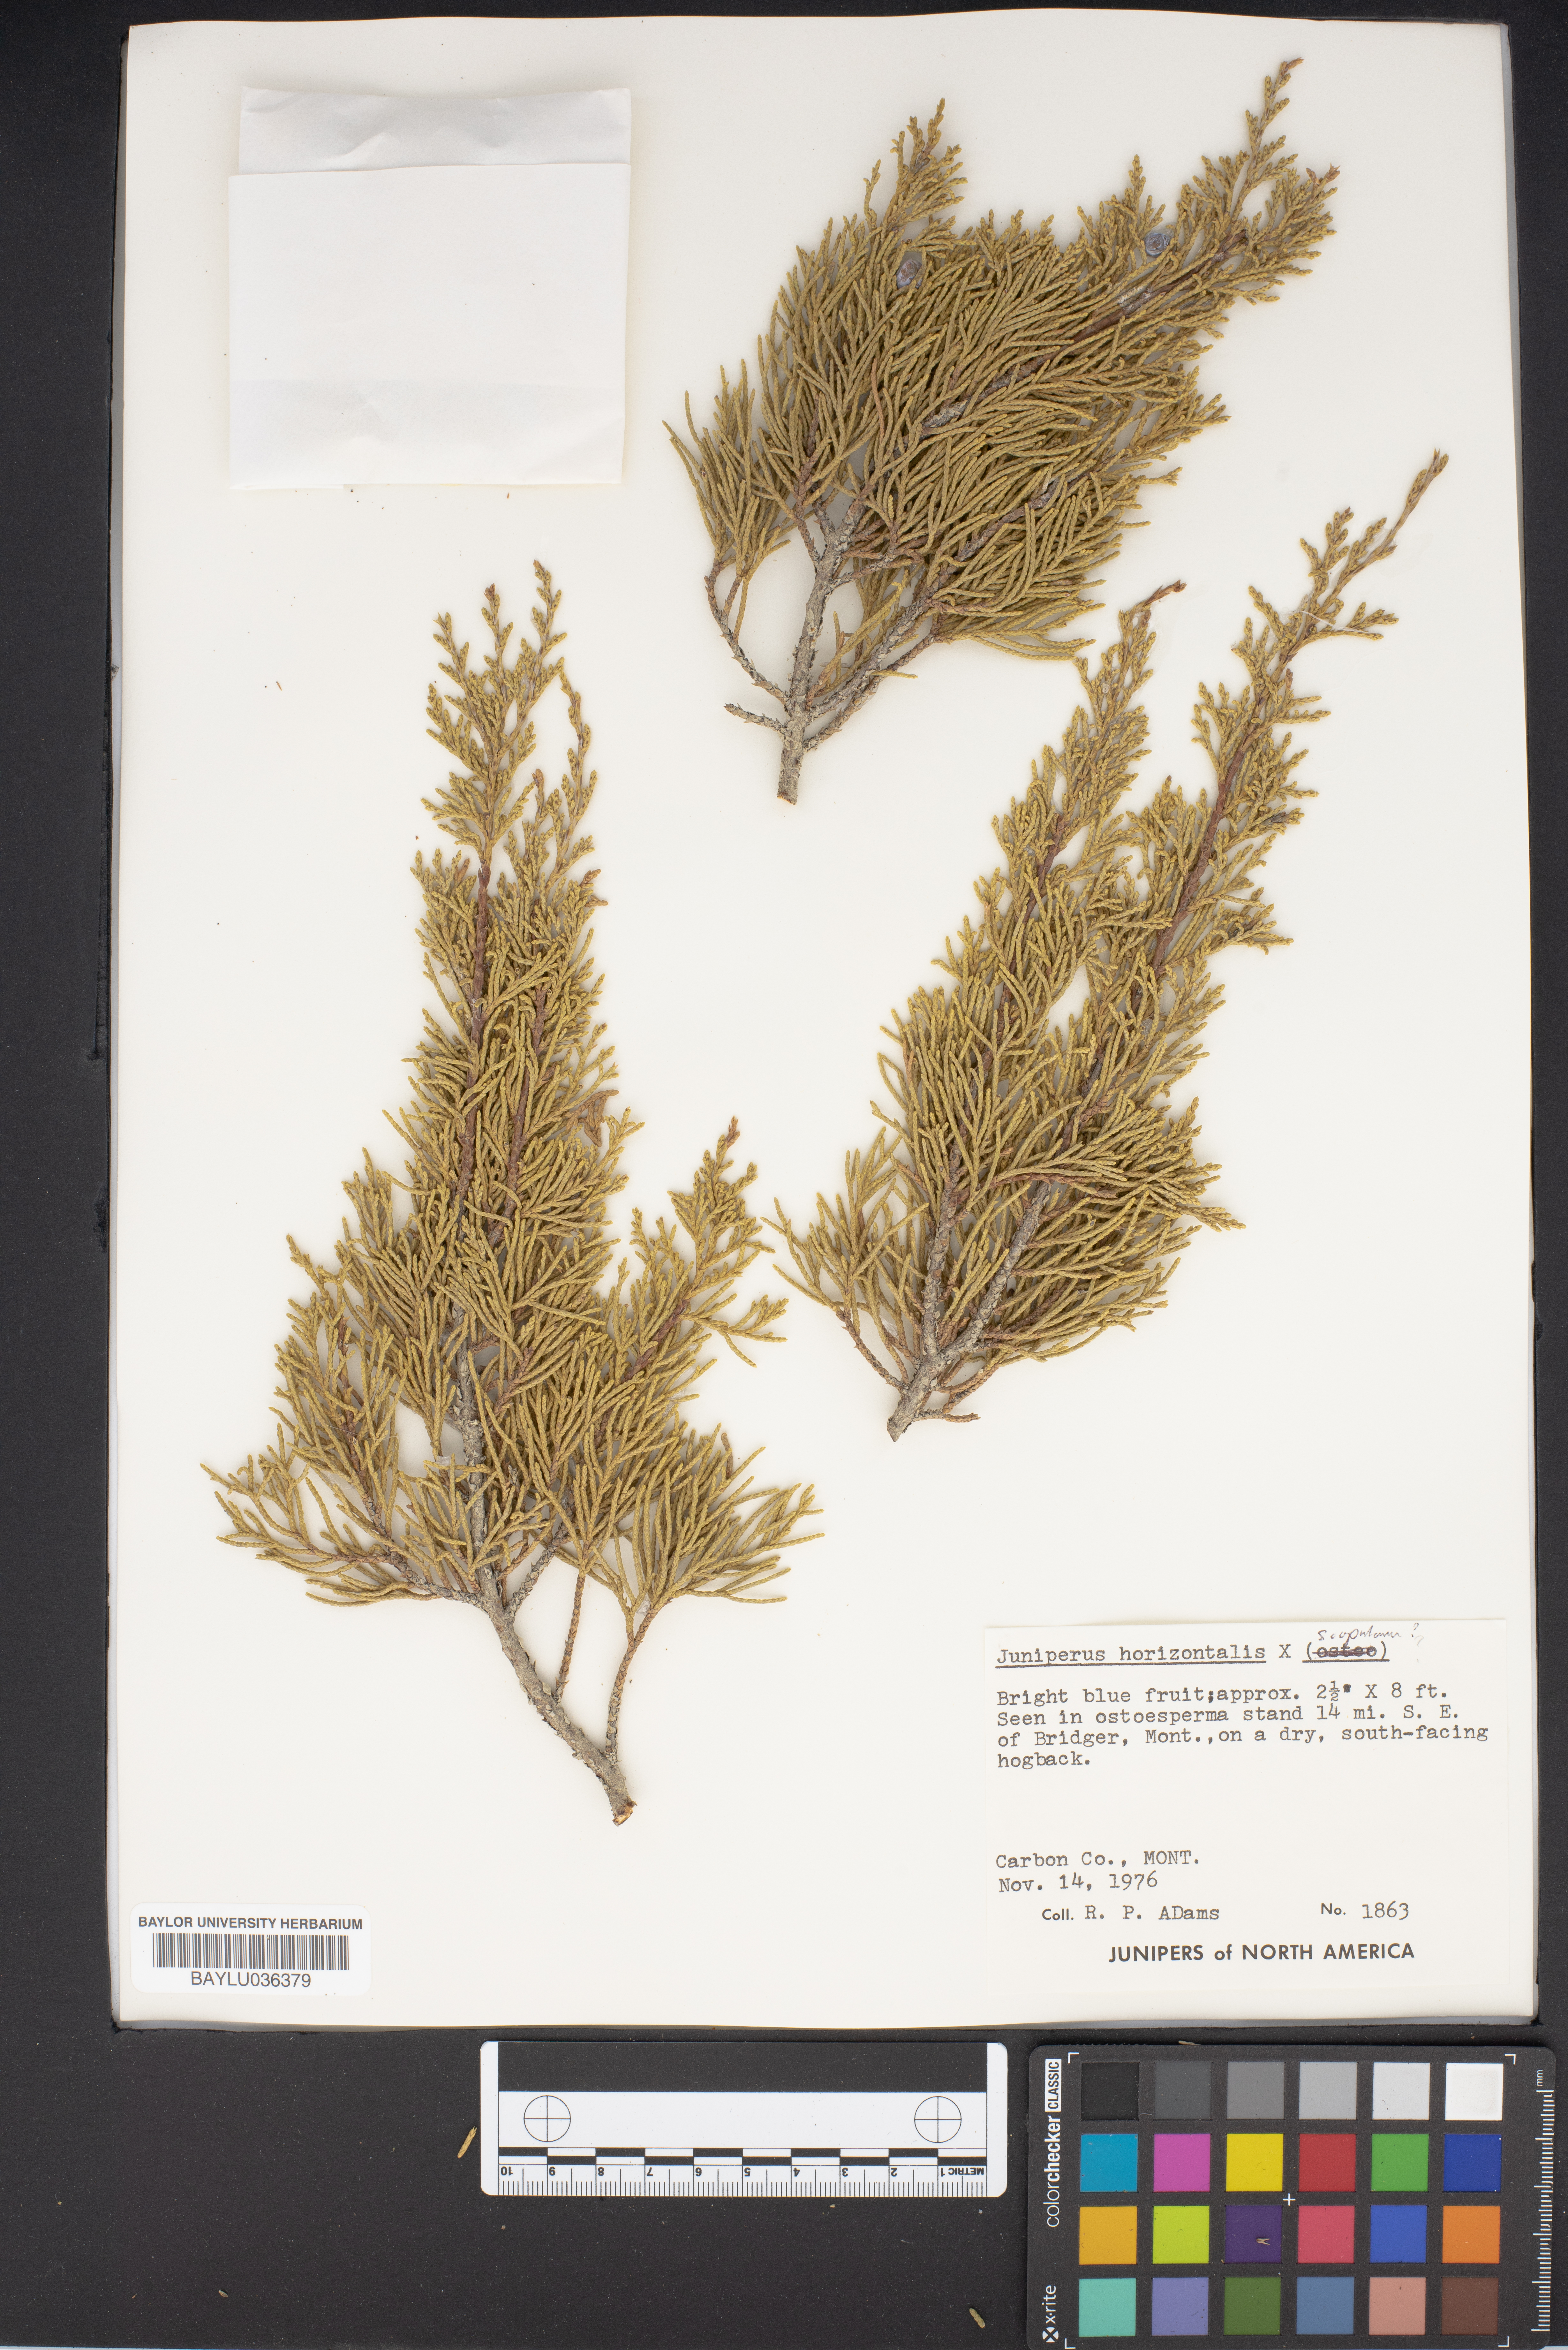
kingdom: Plantae
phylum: Tracheophyta
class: Pinopsida
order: Pinales
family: Cupressaceae
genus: Juniperus
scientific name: Juniperus horizontalis
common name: Creeping juniper
